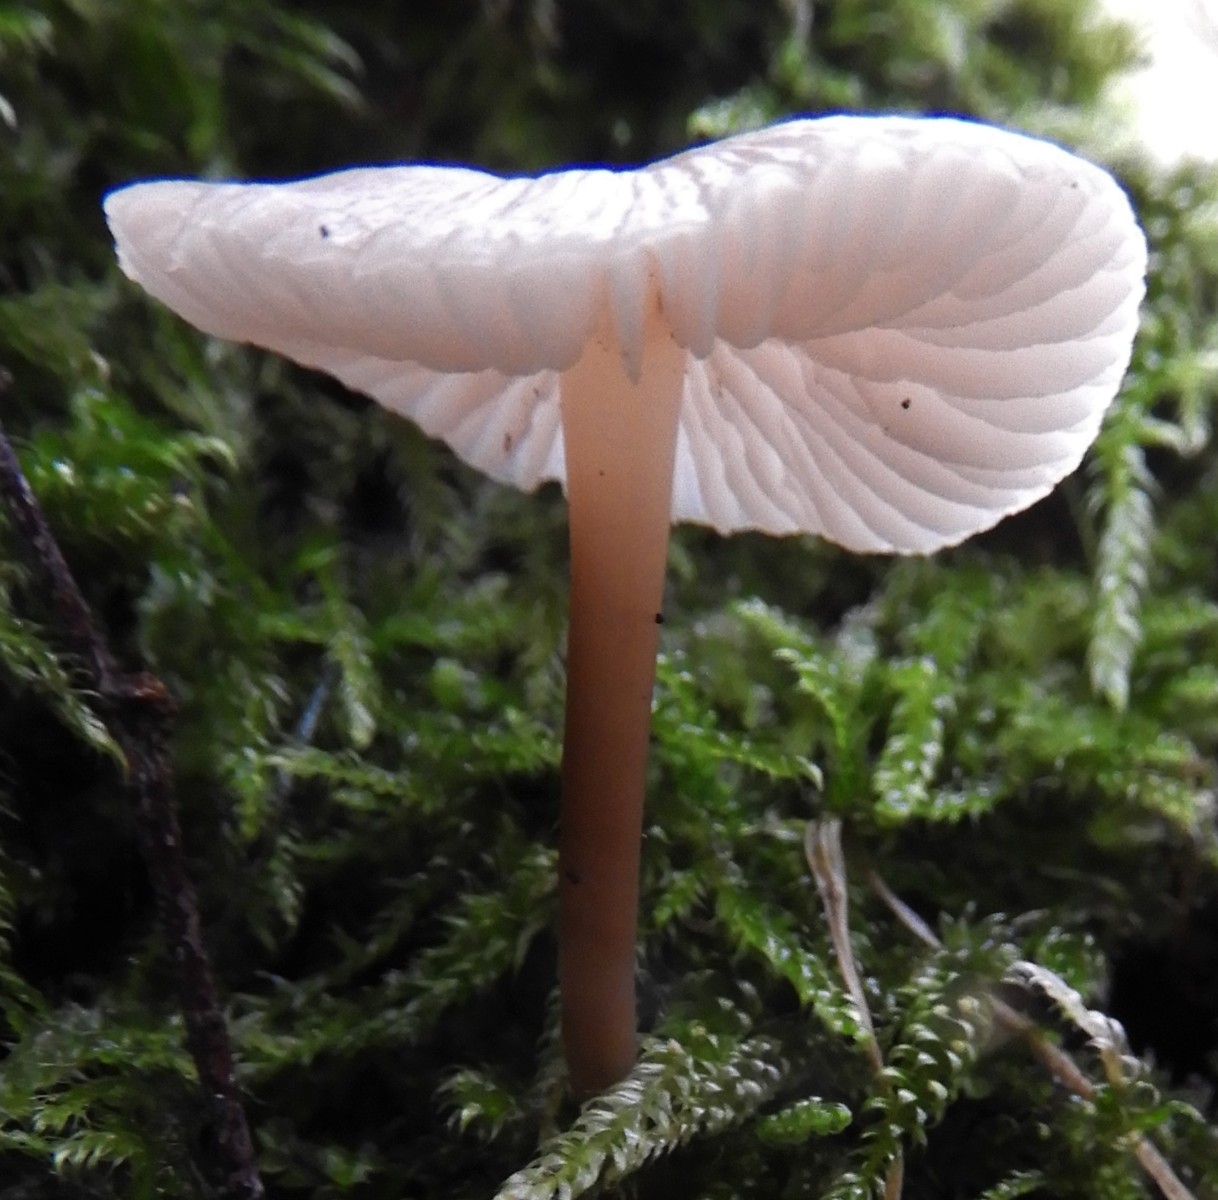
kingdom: Fungi
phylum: Basidiomycota
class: Agaricomycetes
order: Agaricales
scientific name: Agaricales
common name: champignonordenen
